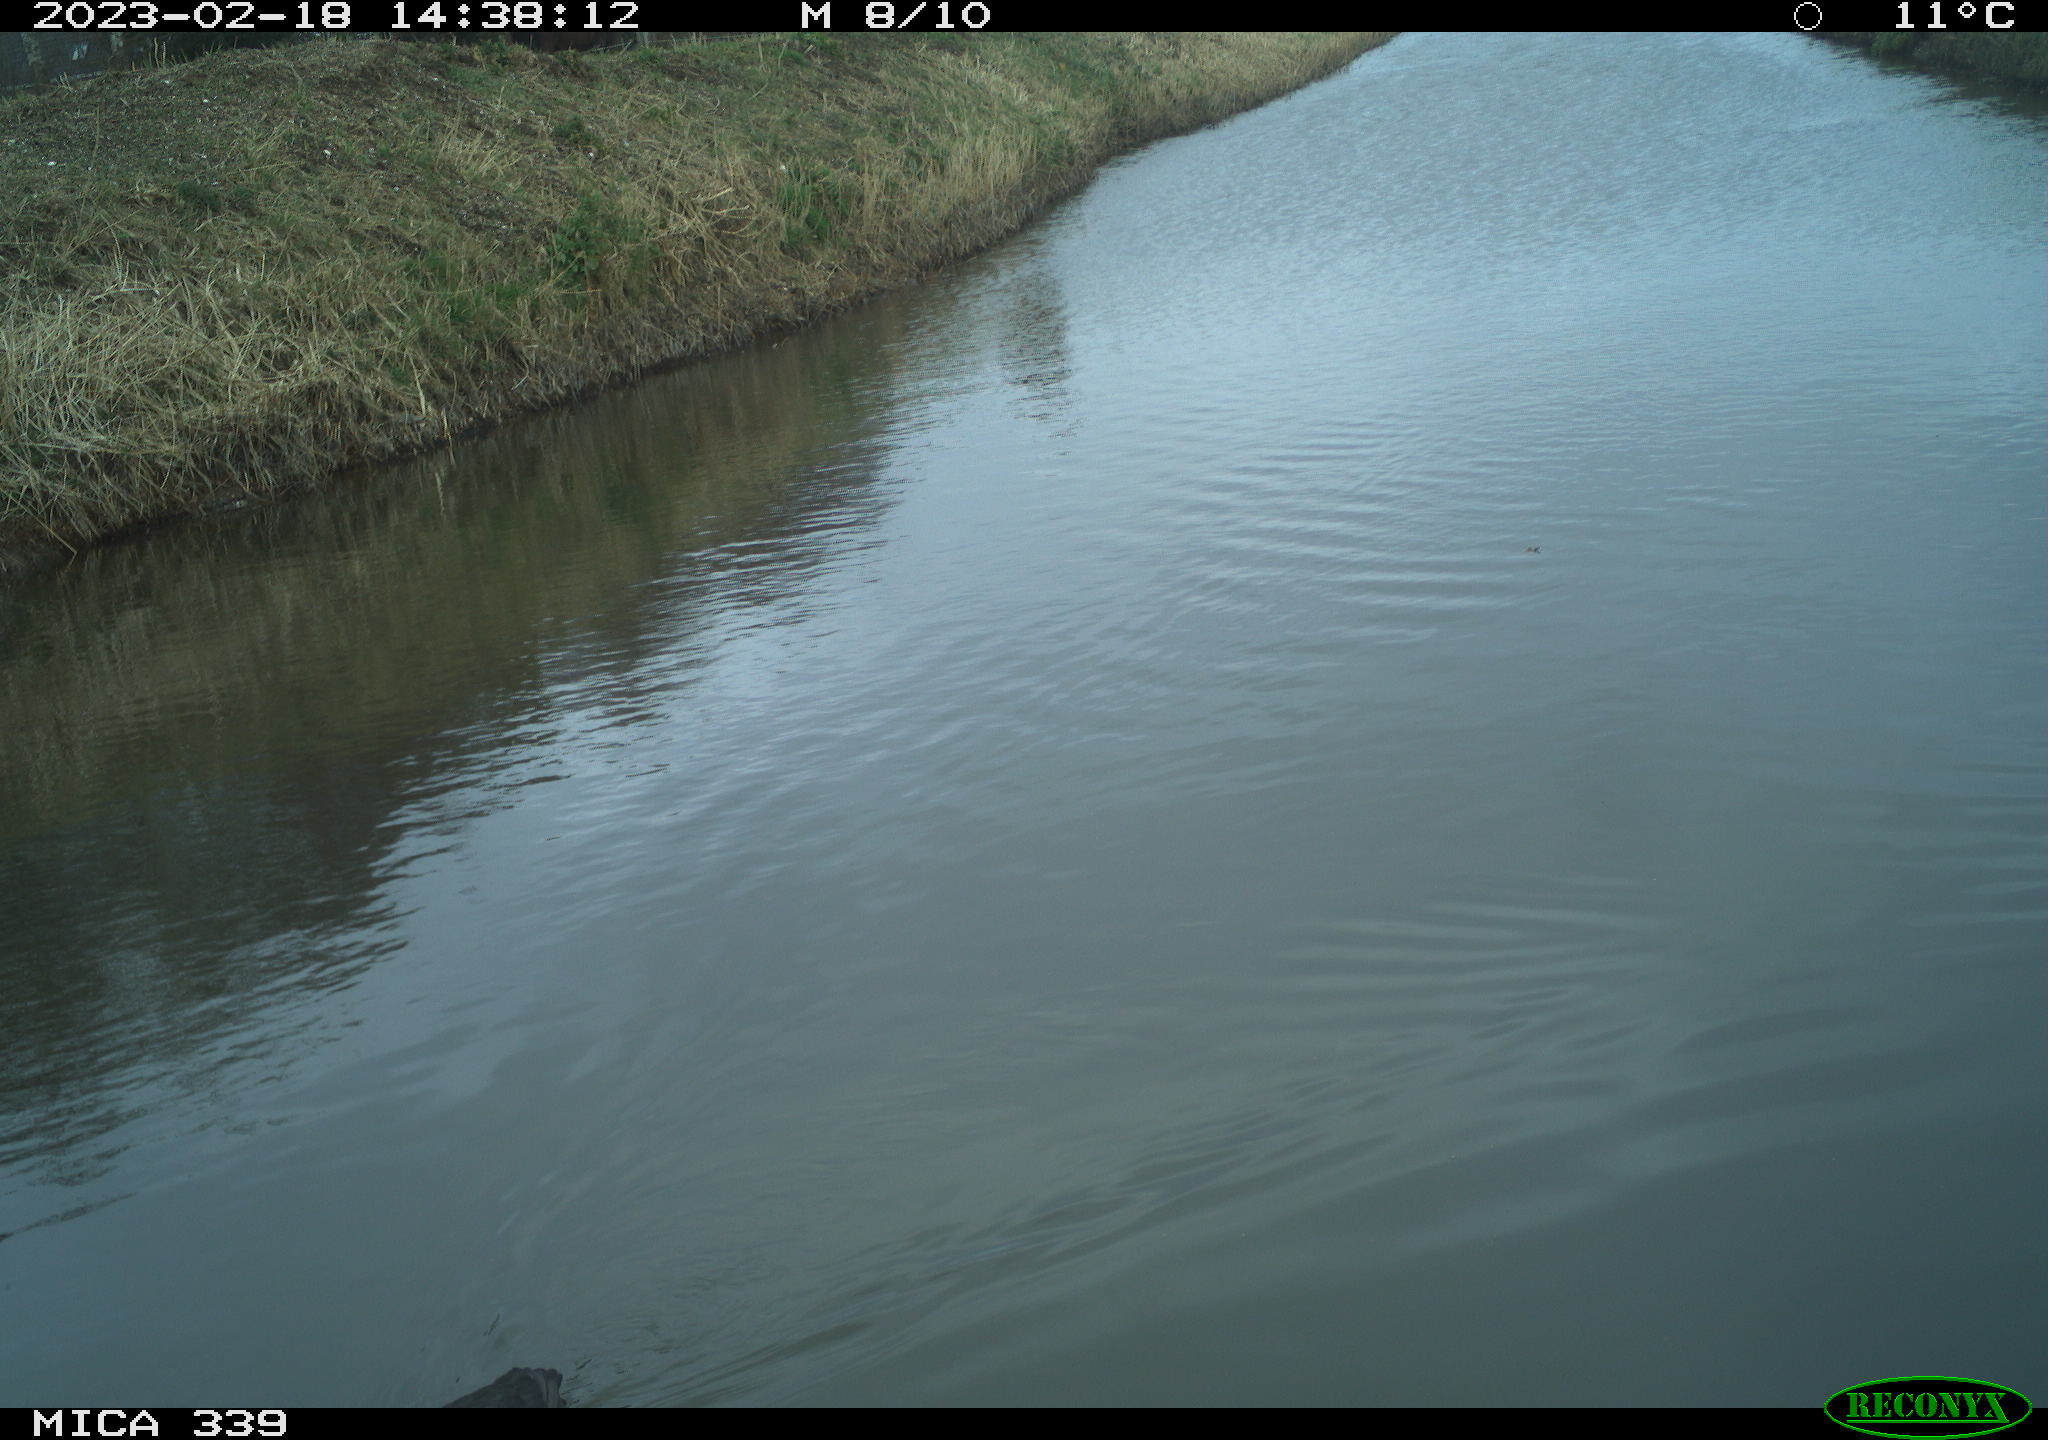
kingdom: Animalia
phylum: Chordata
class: Aves
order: Gruiformes
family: Rallidae
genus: Fulica
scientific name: Fulica atra
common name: Eurasian coot
